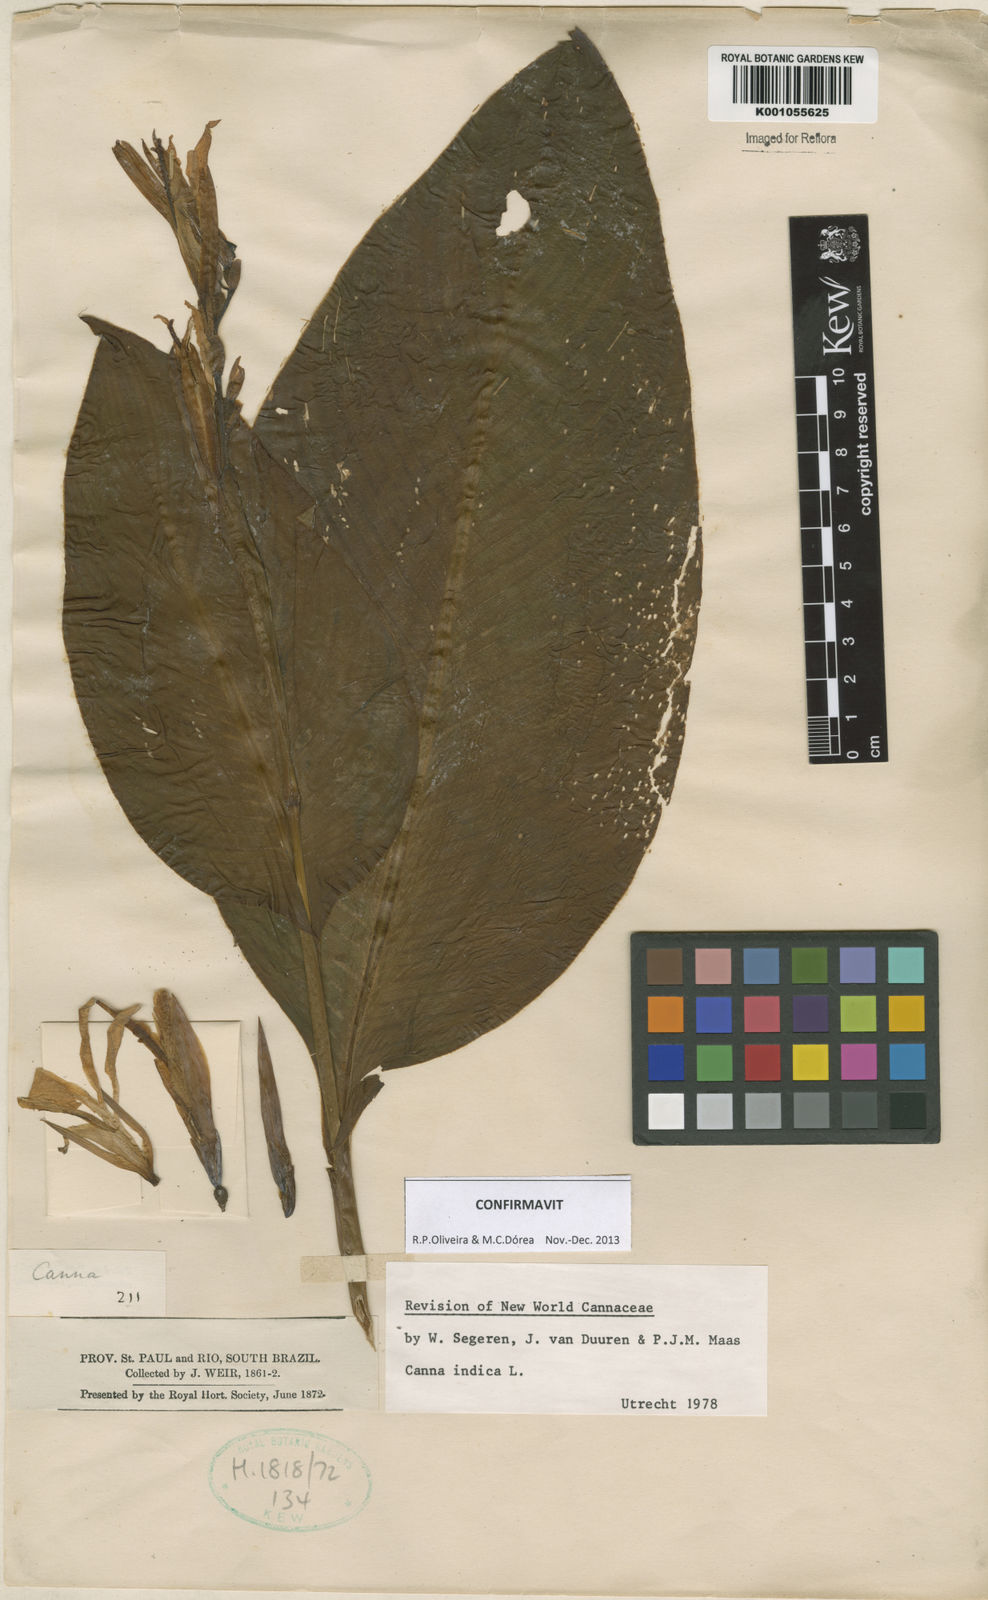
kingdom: Plantae
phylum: Tracheophyta
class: Liliopsida
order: Zingiberales
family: Cannaceae
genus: Canna
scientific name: Canna indica
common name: Indian shot
